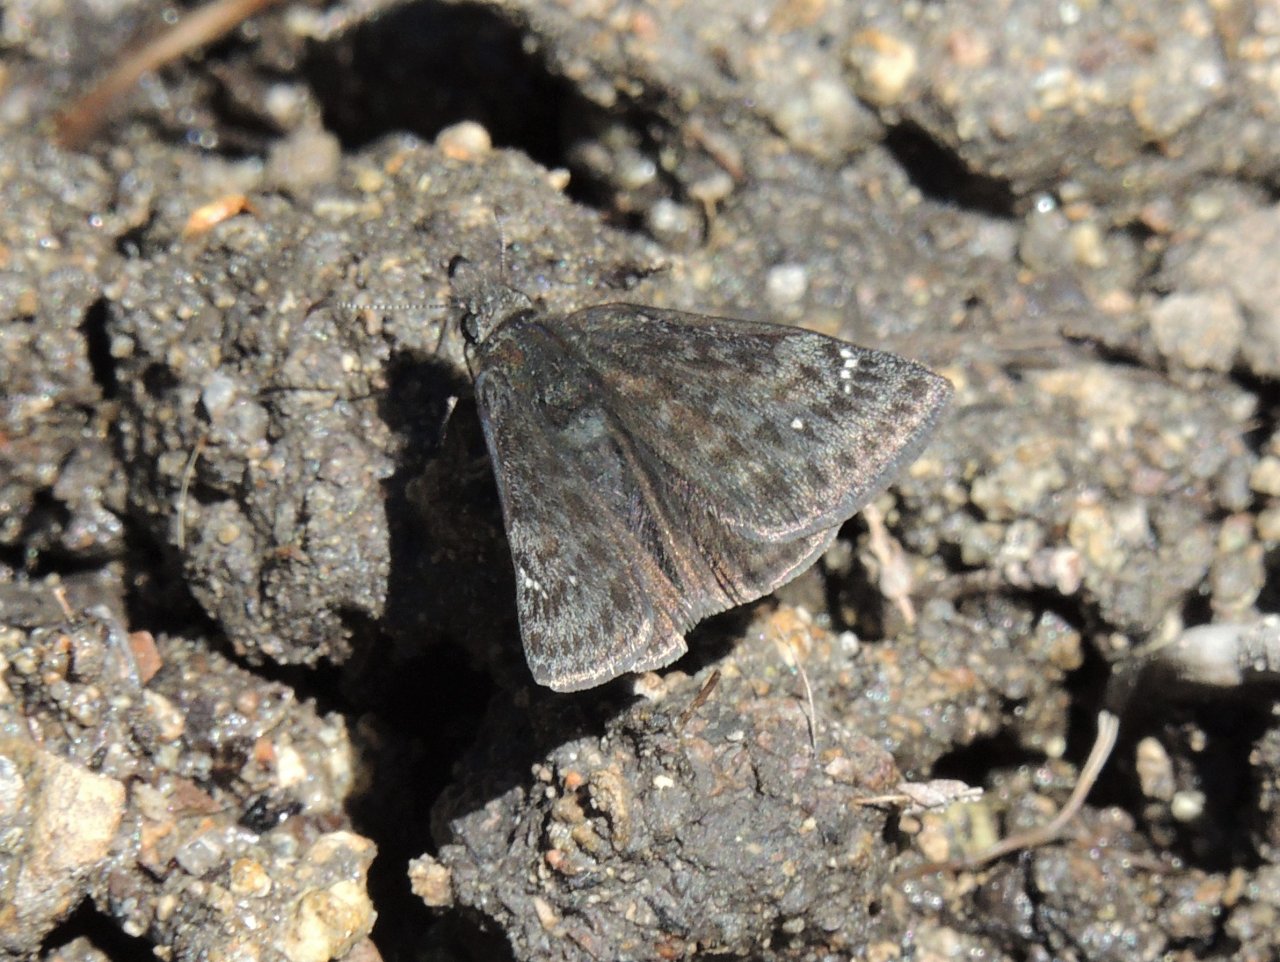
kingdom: Animalia
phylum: Arthropoda
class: Insecta
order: Lepidoptera
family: Hesperiidae
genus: Gesta
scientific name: Gesta
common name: Persius Duskywing
